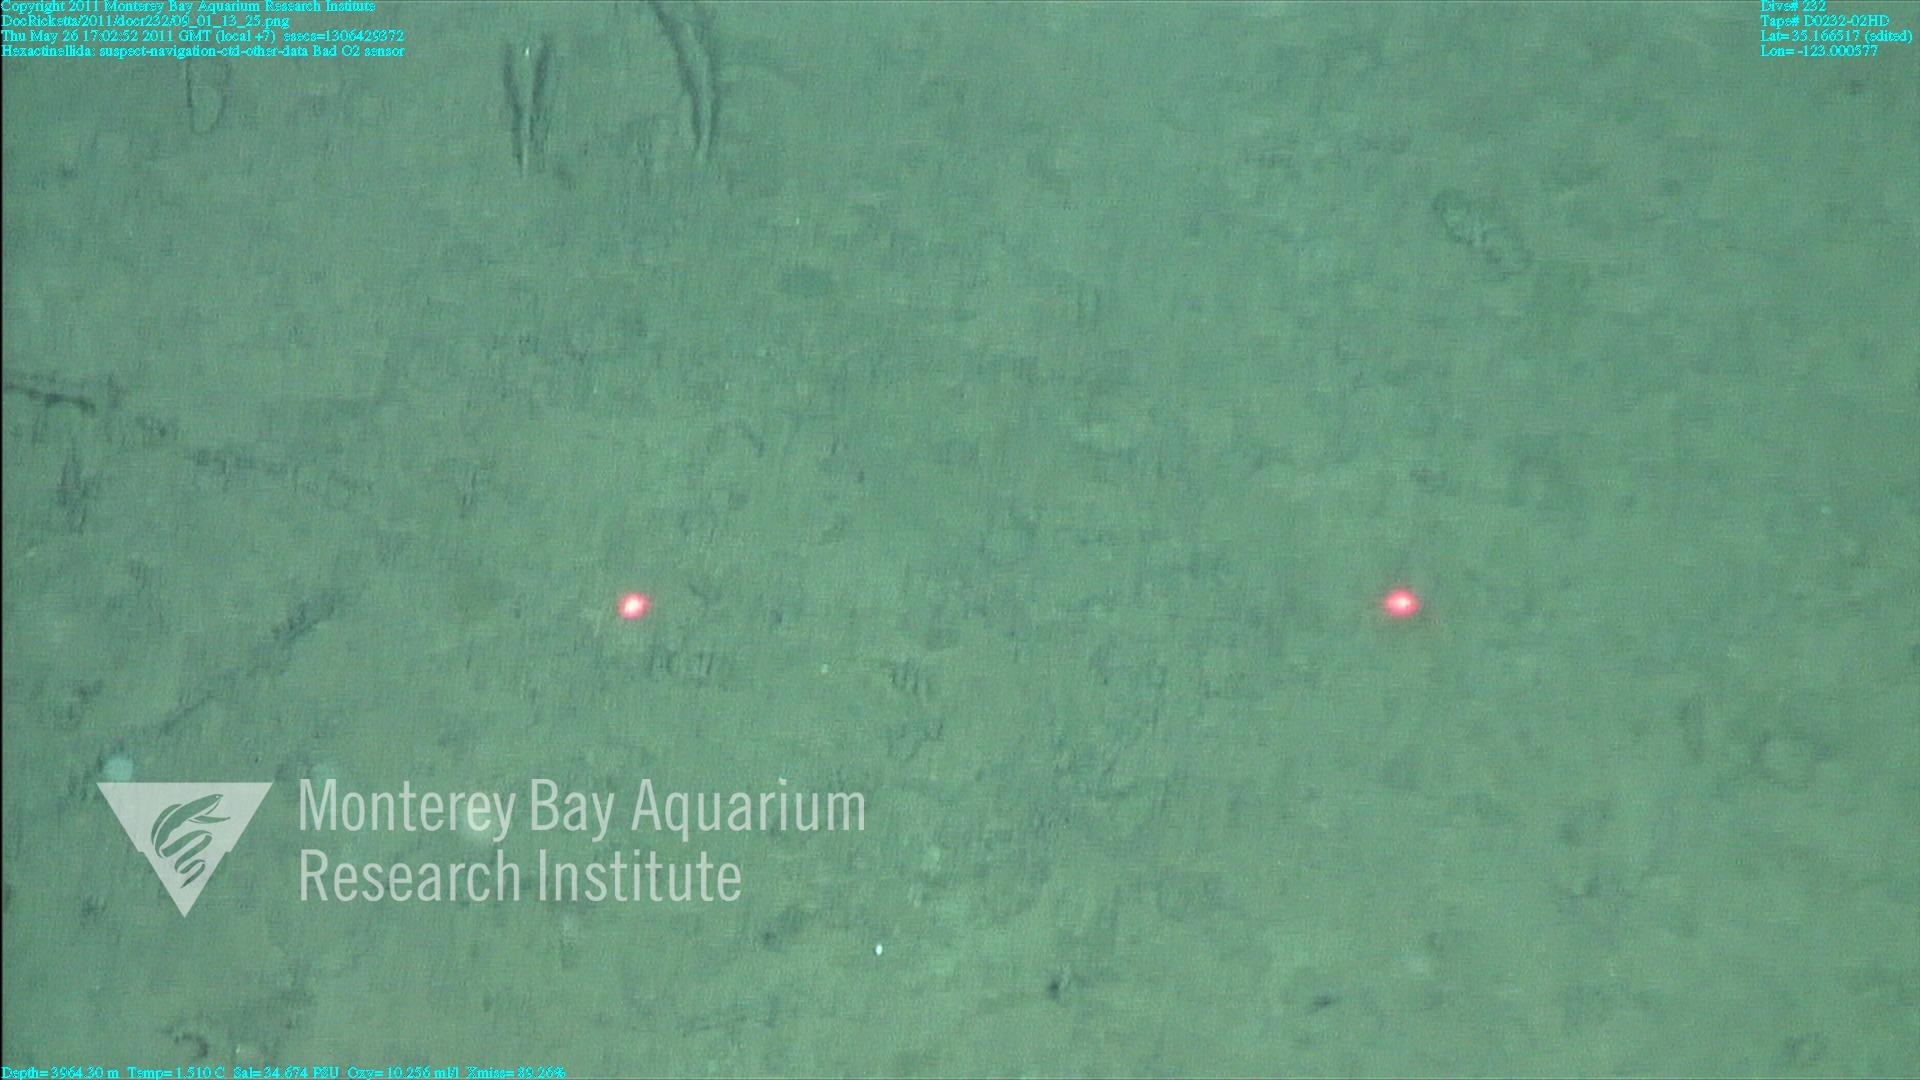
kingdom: Animalia
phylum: Porifera
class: Hexactinellida
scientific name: Hexactinellida
